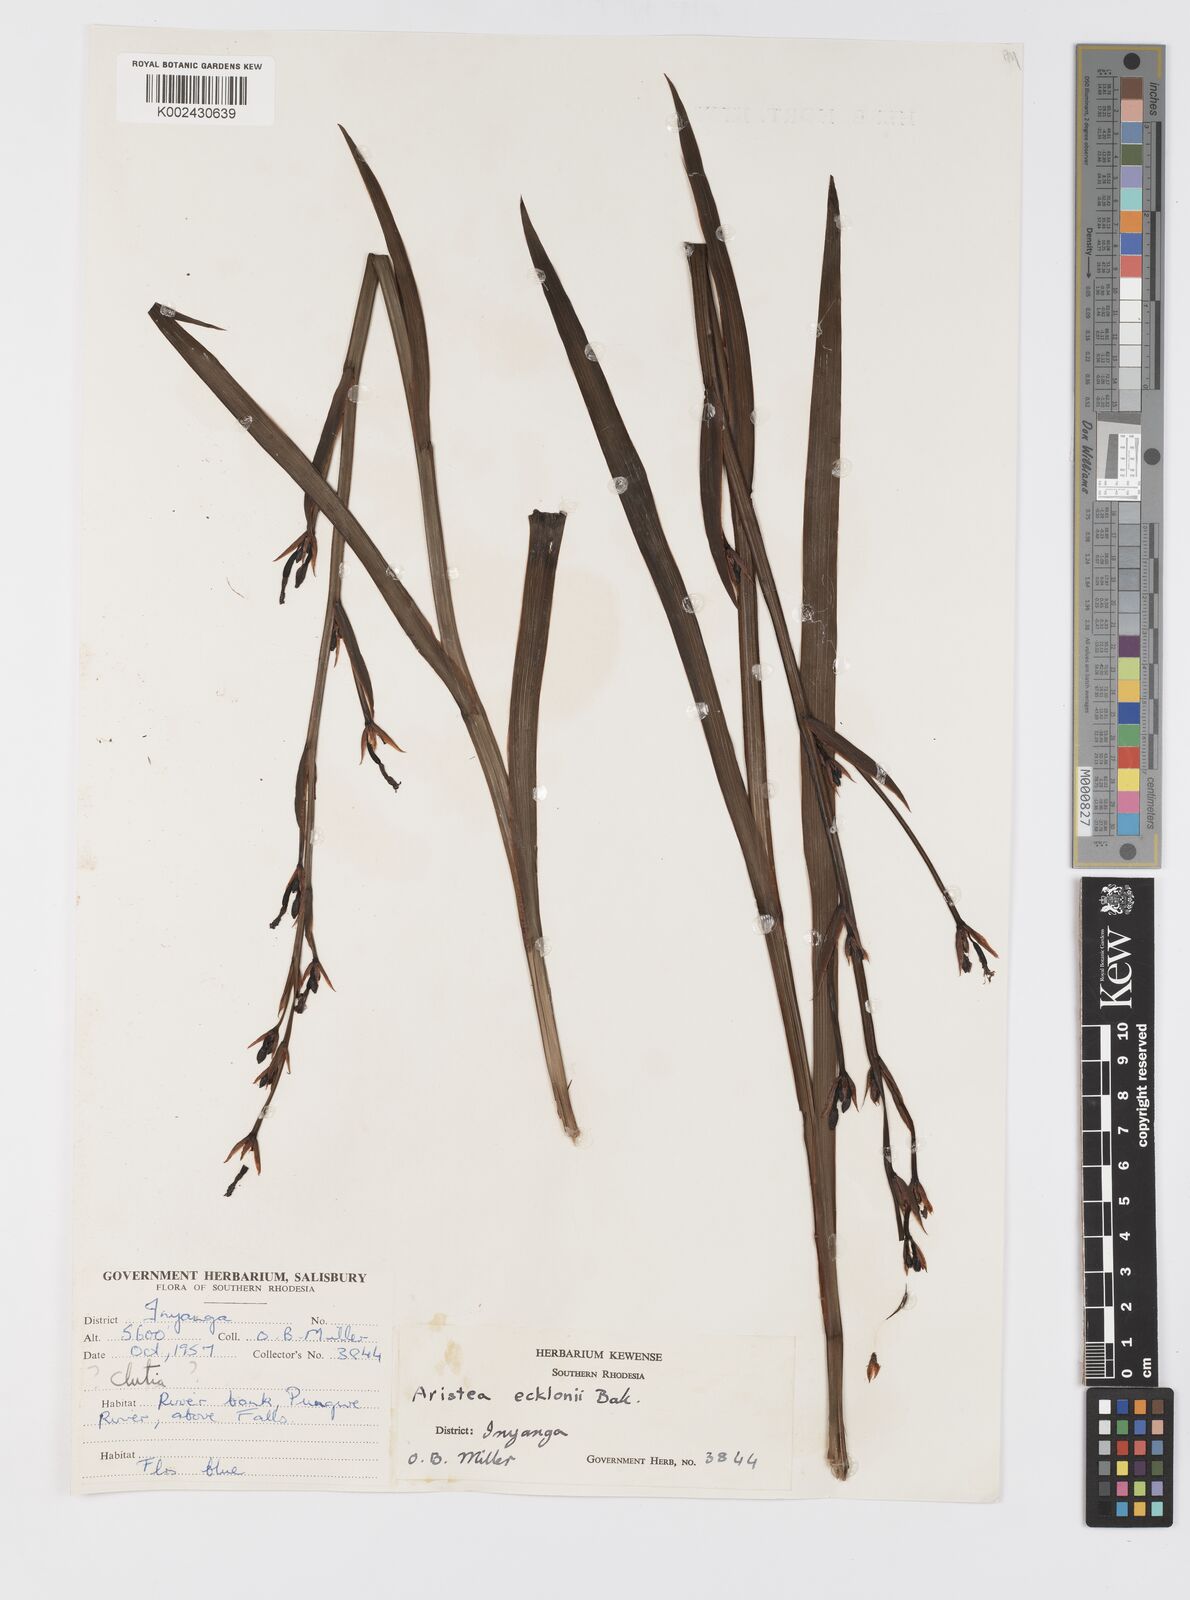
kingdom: Plantae
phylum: Tracheophyta
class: Liliopsida
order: Asparagales
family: Iridaceae
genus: Aristea
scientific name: Aristea ecklonii
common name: Blue corn-lily
